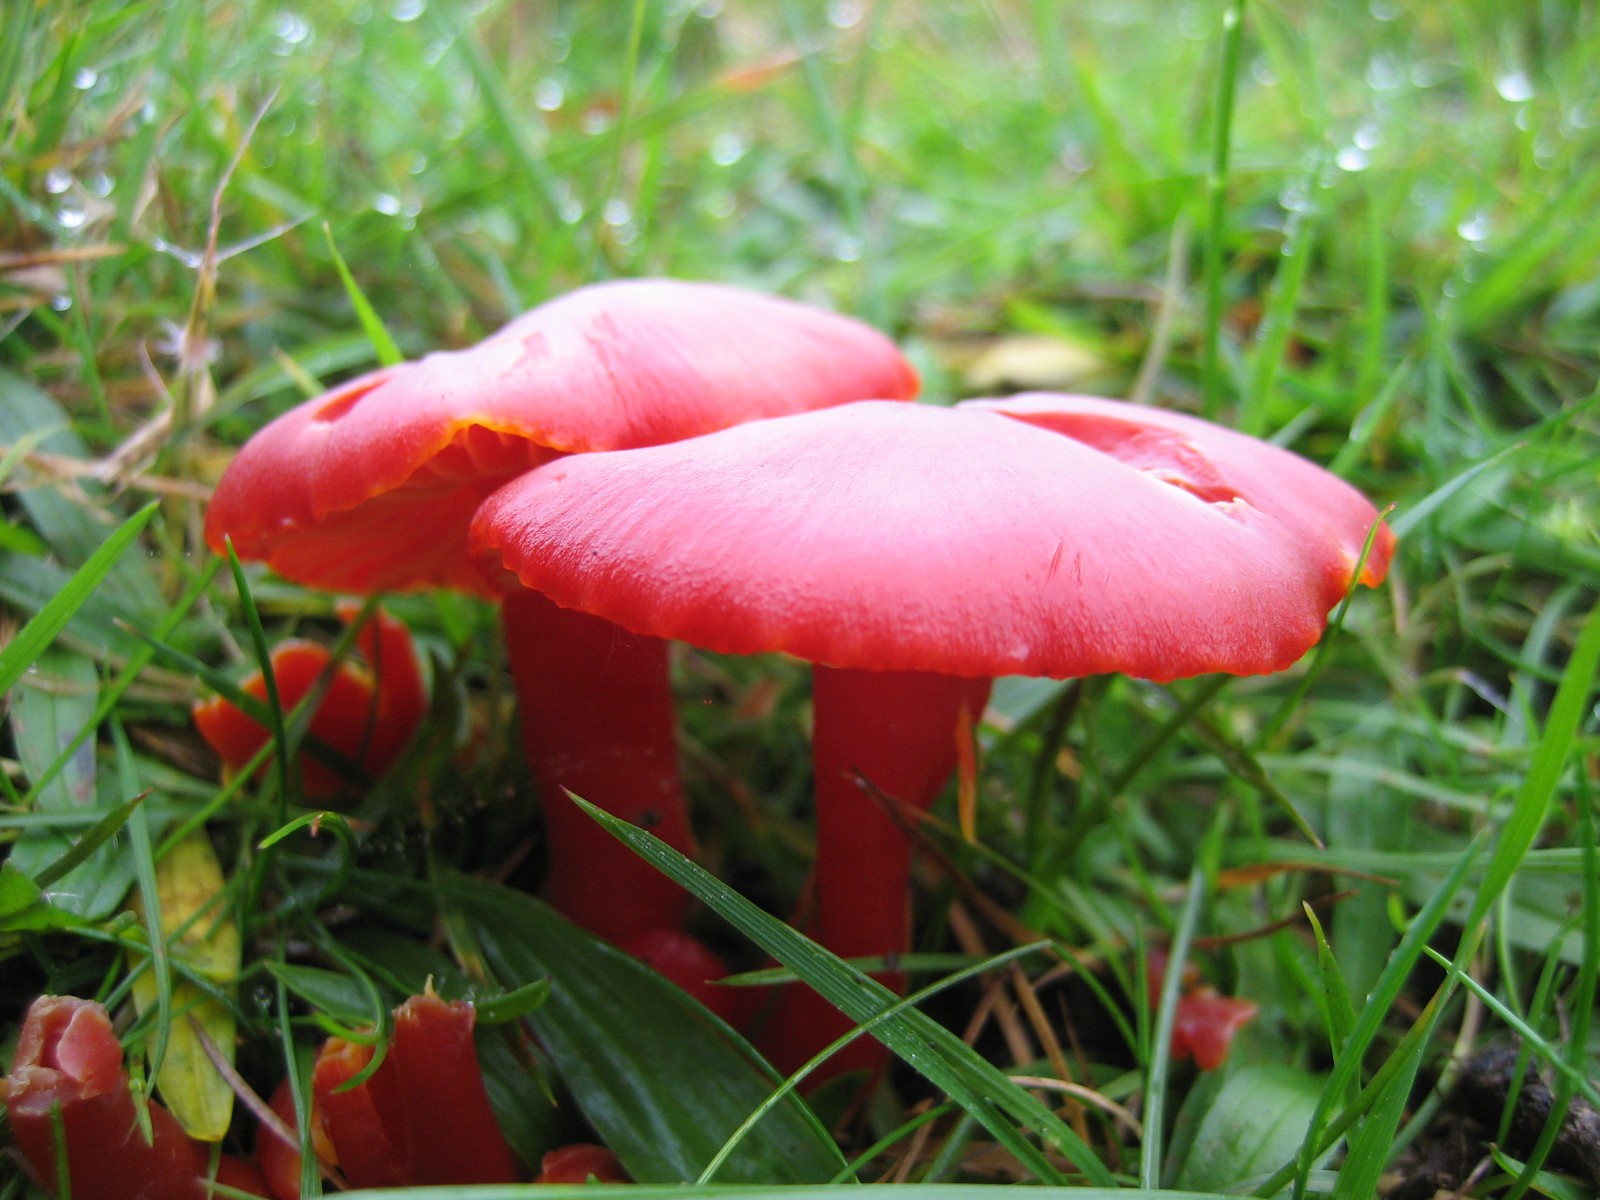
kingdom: Fungi
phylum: Basidiomycota
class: Agaricomycetes
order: Agaricales
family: Hygrophoraceae
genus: Hygrocybe
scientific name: Hygrocybe coccinea
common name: cinnober-vokshat
